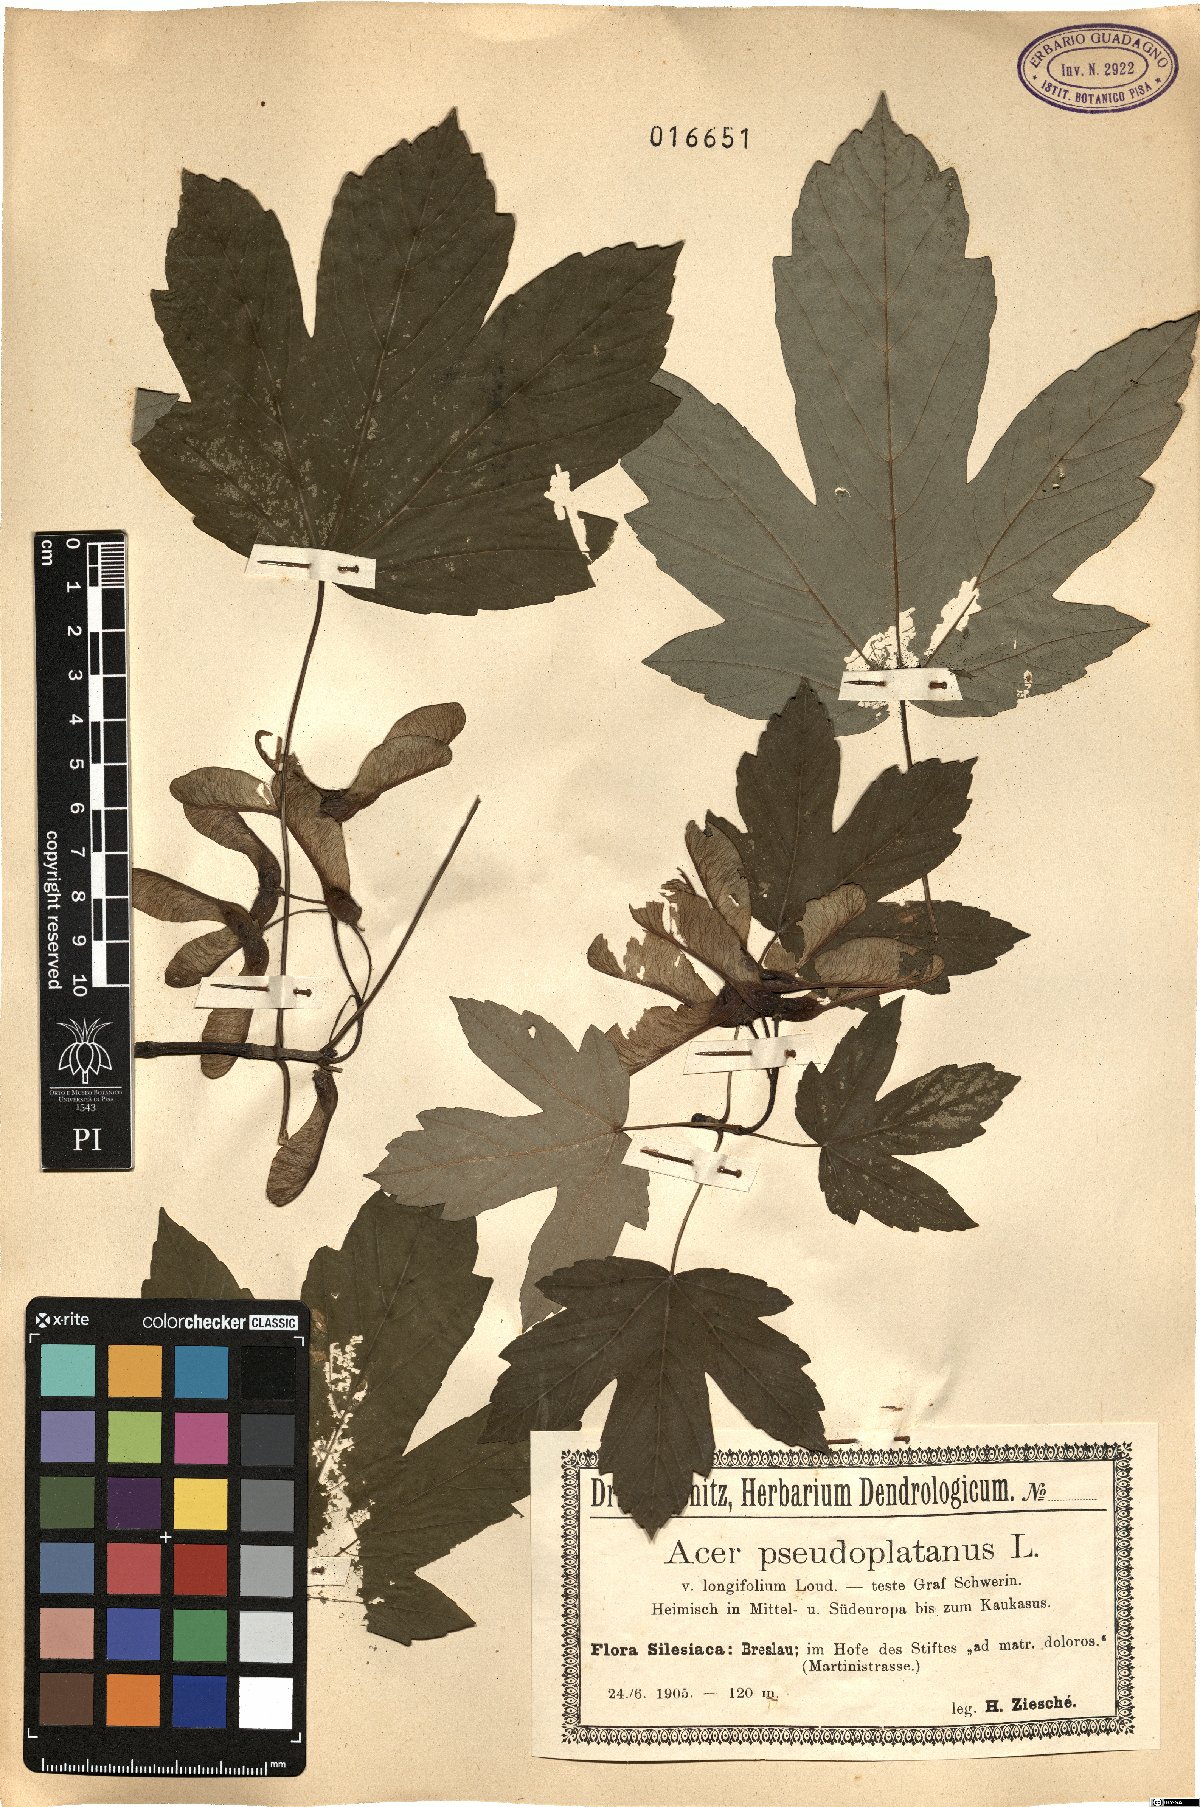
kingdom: Plantae
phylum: Tracheophyta
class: Magnoliopsida
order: Sapindales
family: Sapindaceae
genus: Acer
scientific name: Acer pseudoplatanus
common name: Sycamore
